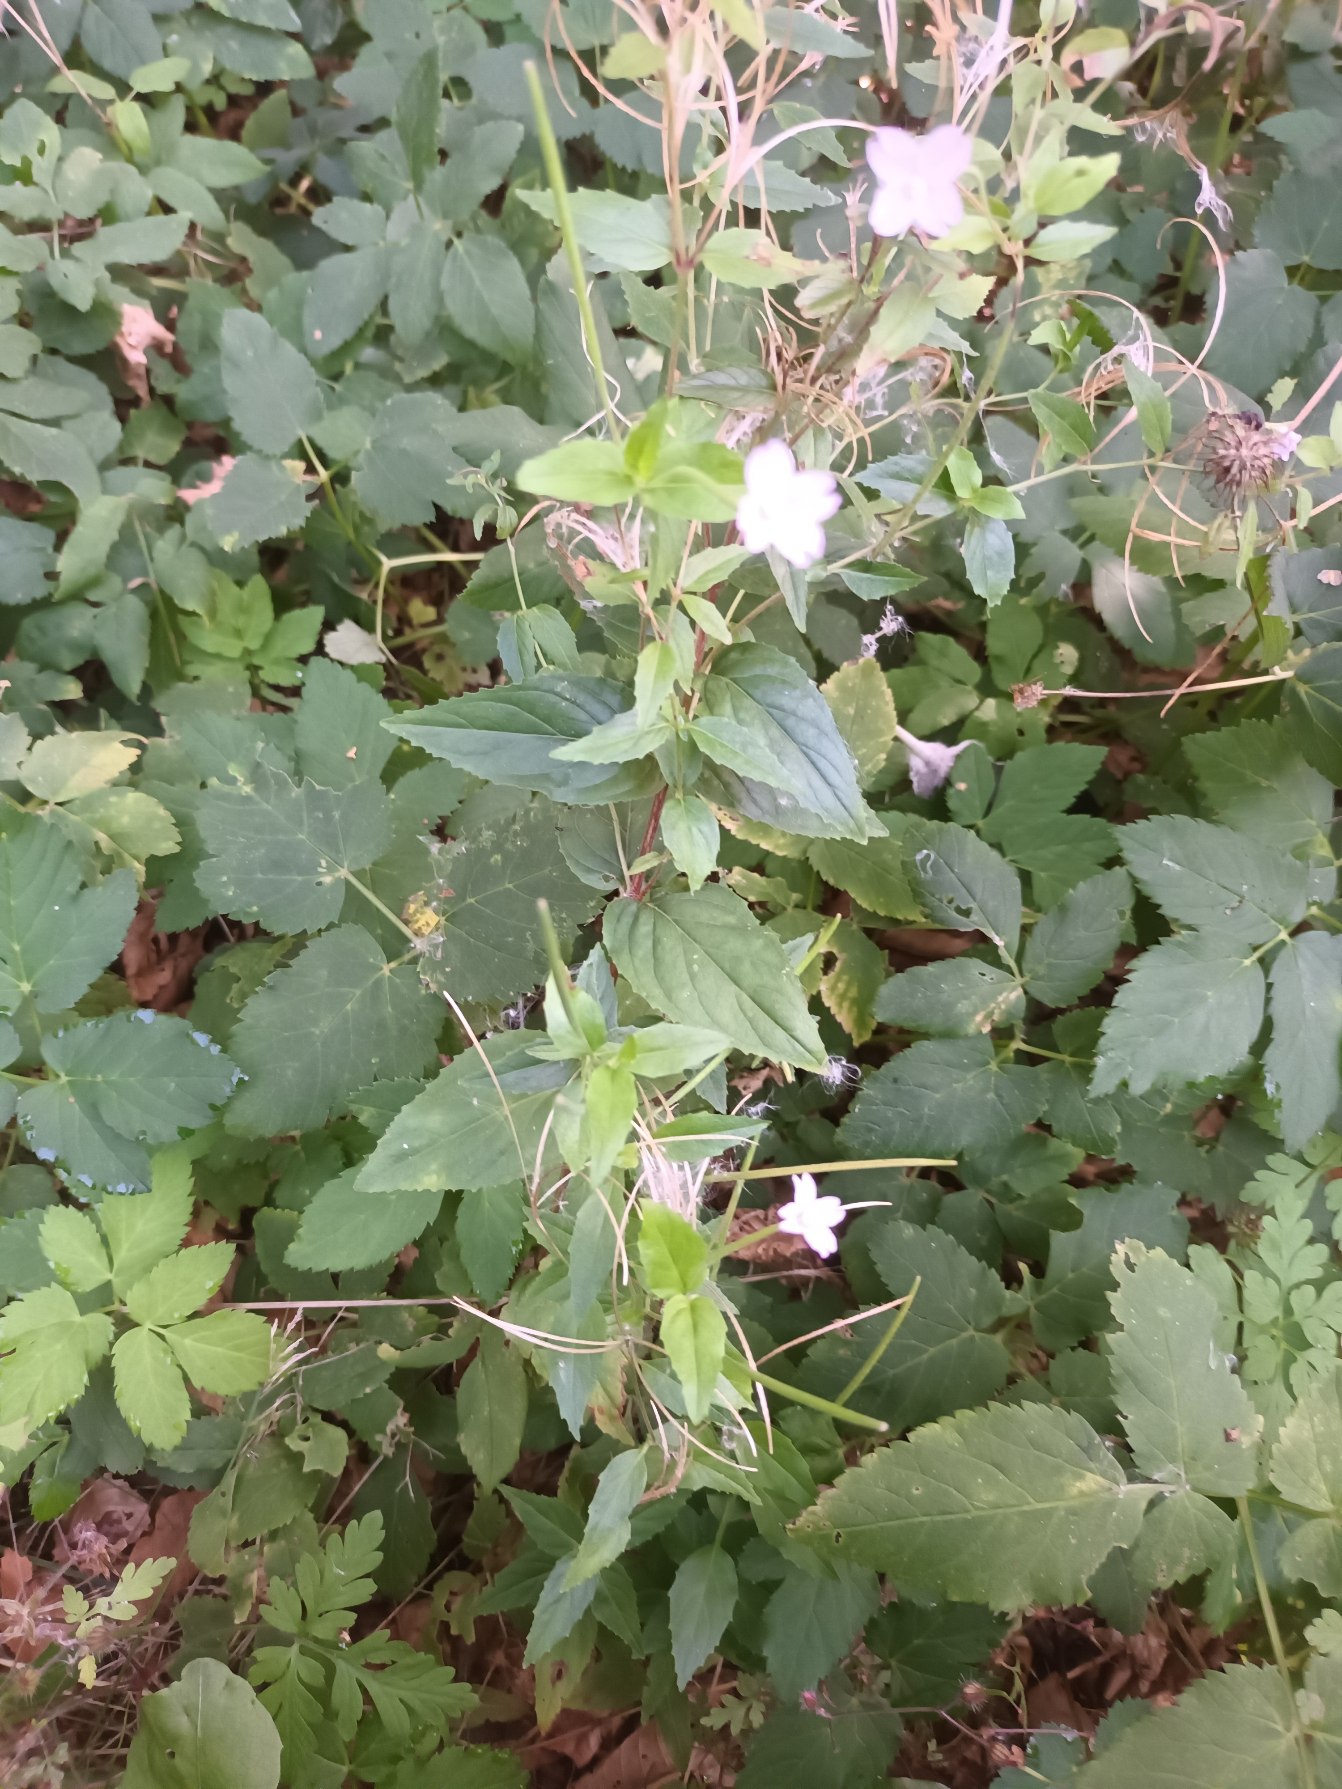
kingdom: Plantae
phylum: Tracheophyta
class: Magnoliopsida
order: Myrtales
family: Onagraceae
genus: Epilobium
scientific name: Epilobium montanum
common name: Glat dueurt
